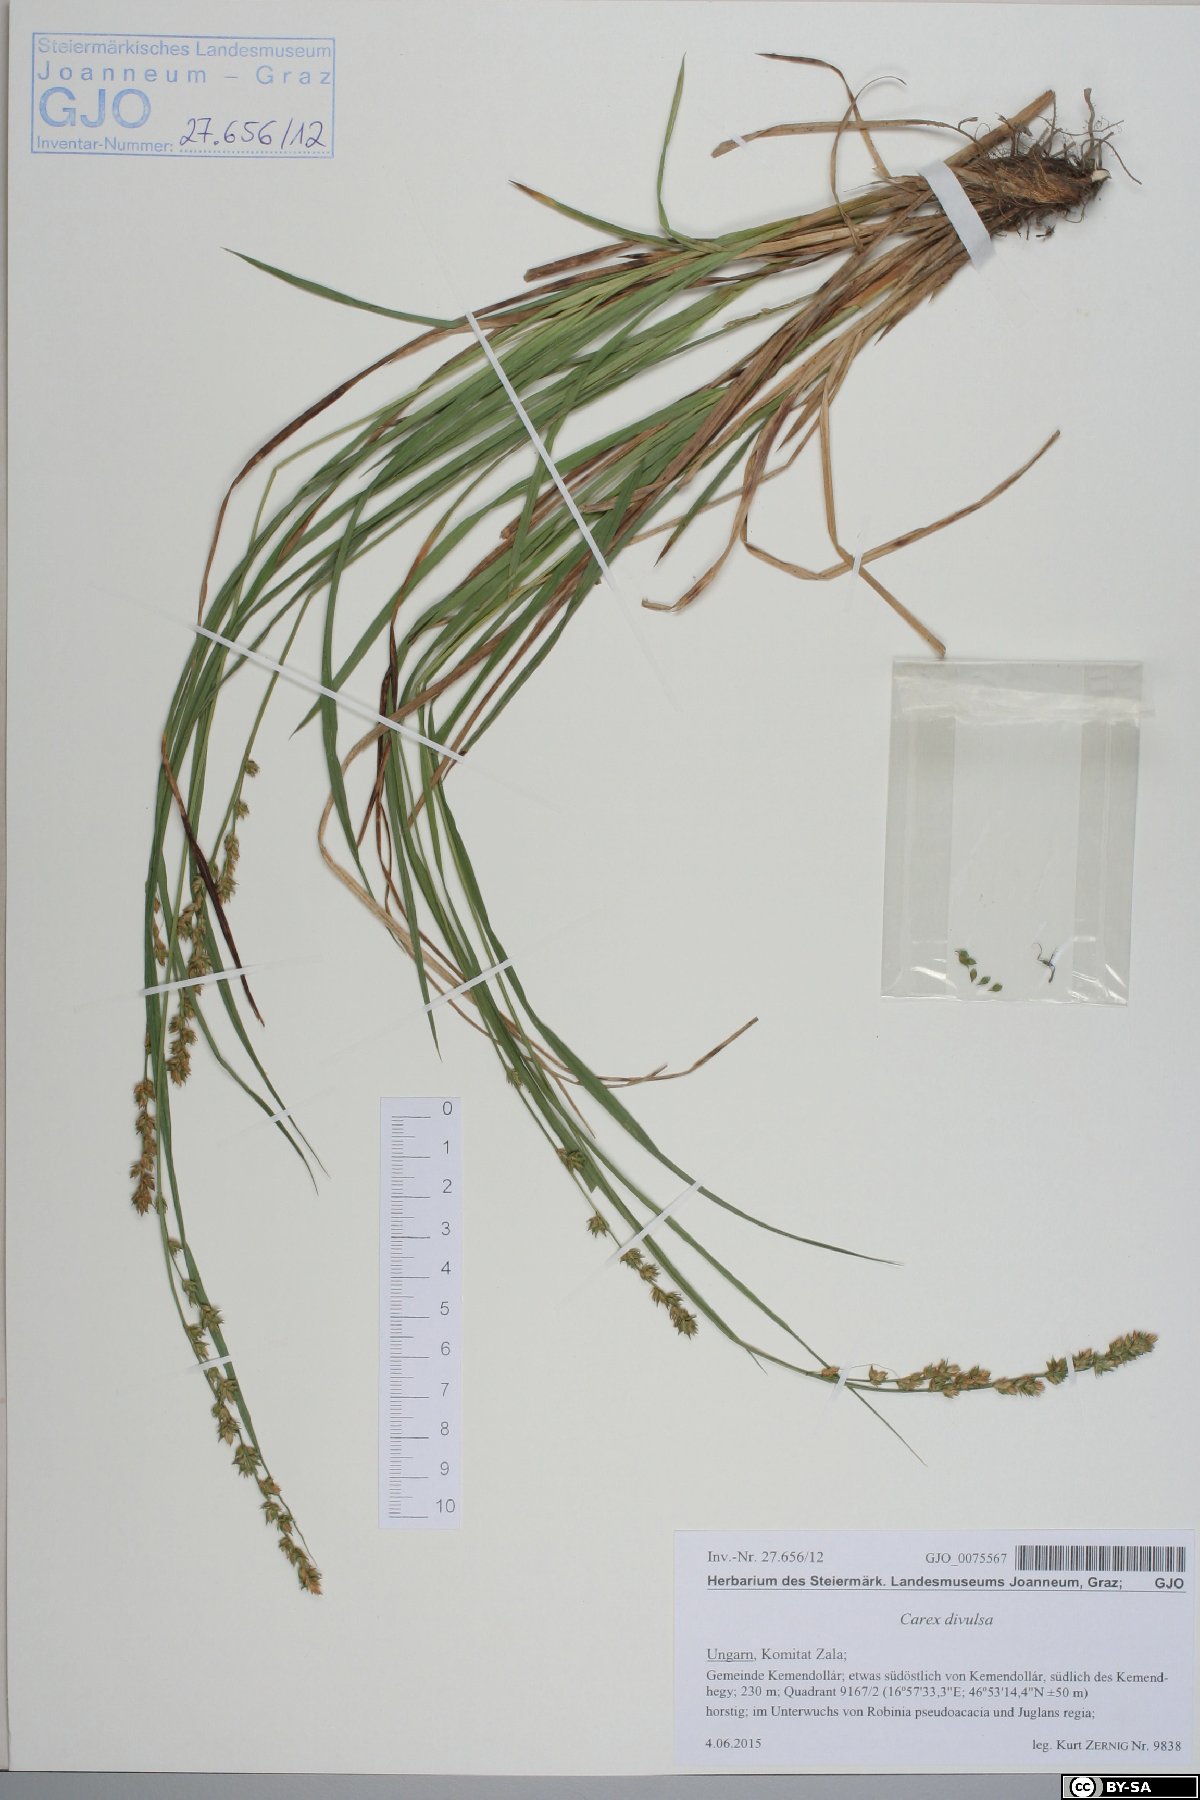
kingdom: Plantae
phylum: Tracheophyta
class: Liliopsida
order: Poales
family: Cyperaceae
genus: Carex
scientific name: Carex divulsa
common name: Grassland sedge
